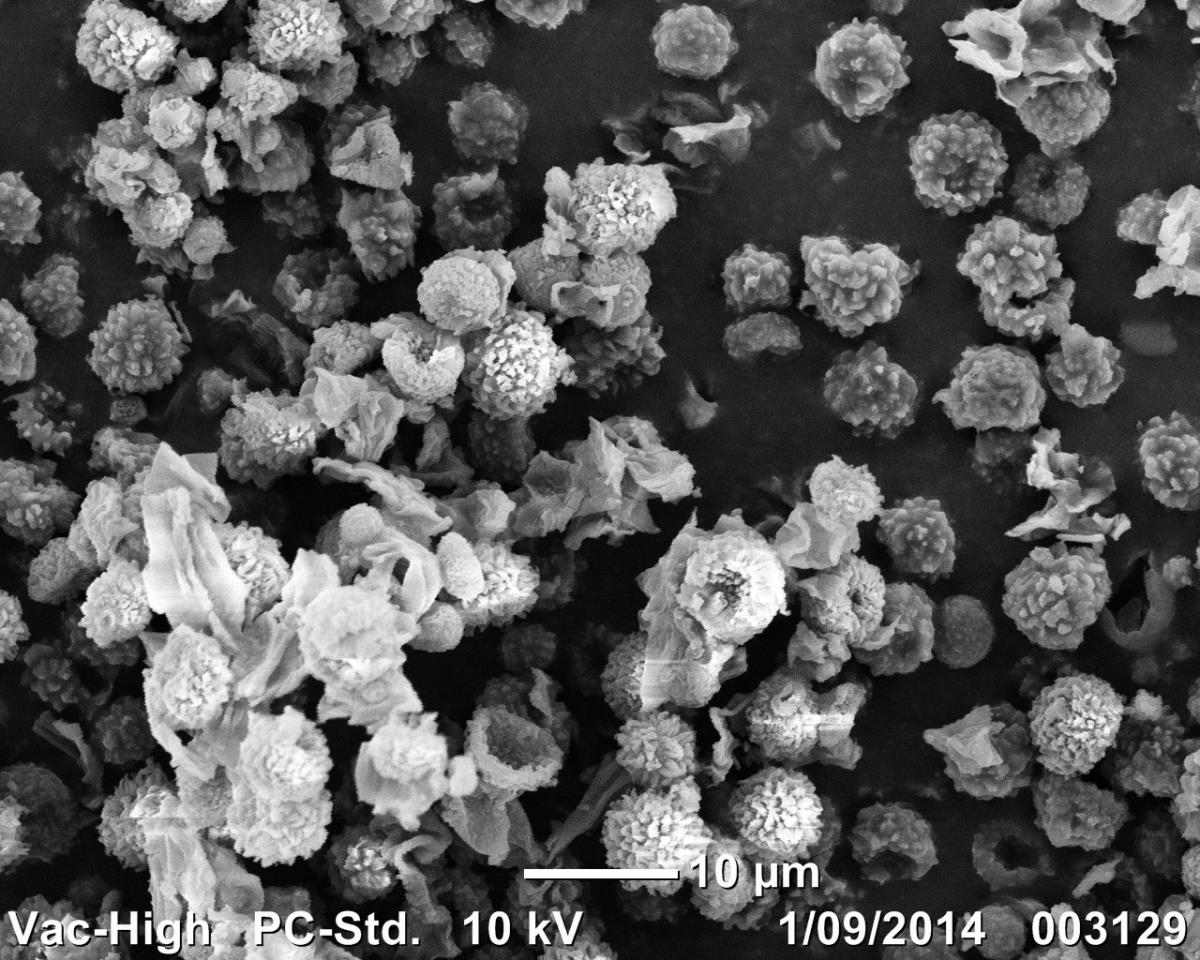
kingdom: Fungi
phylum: Basidiomycota
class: Agaricomycetes
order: Boletales
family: Sclerodermataceae
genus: Pisolithus
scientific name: Pisolithus croceorrhizus
